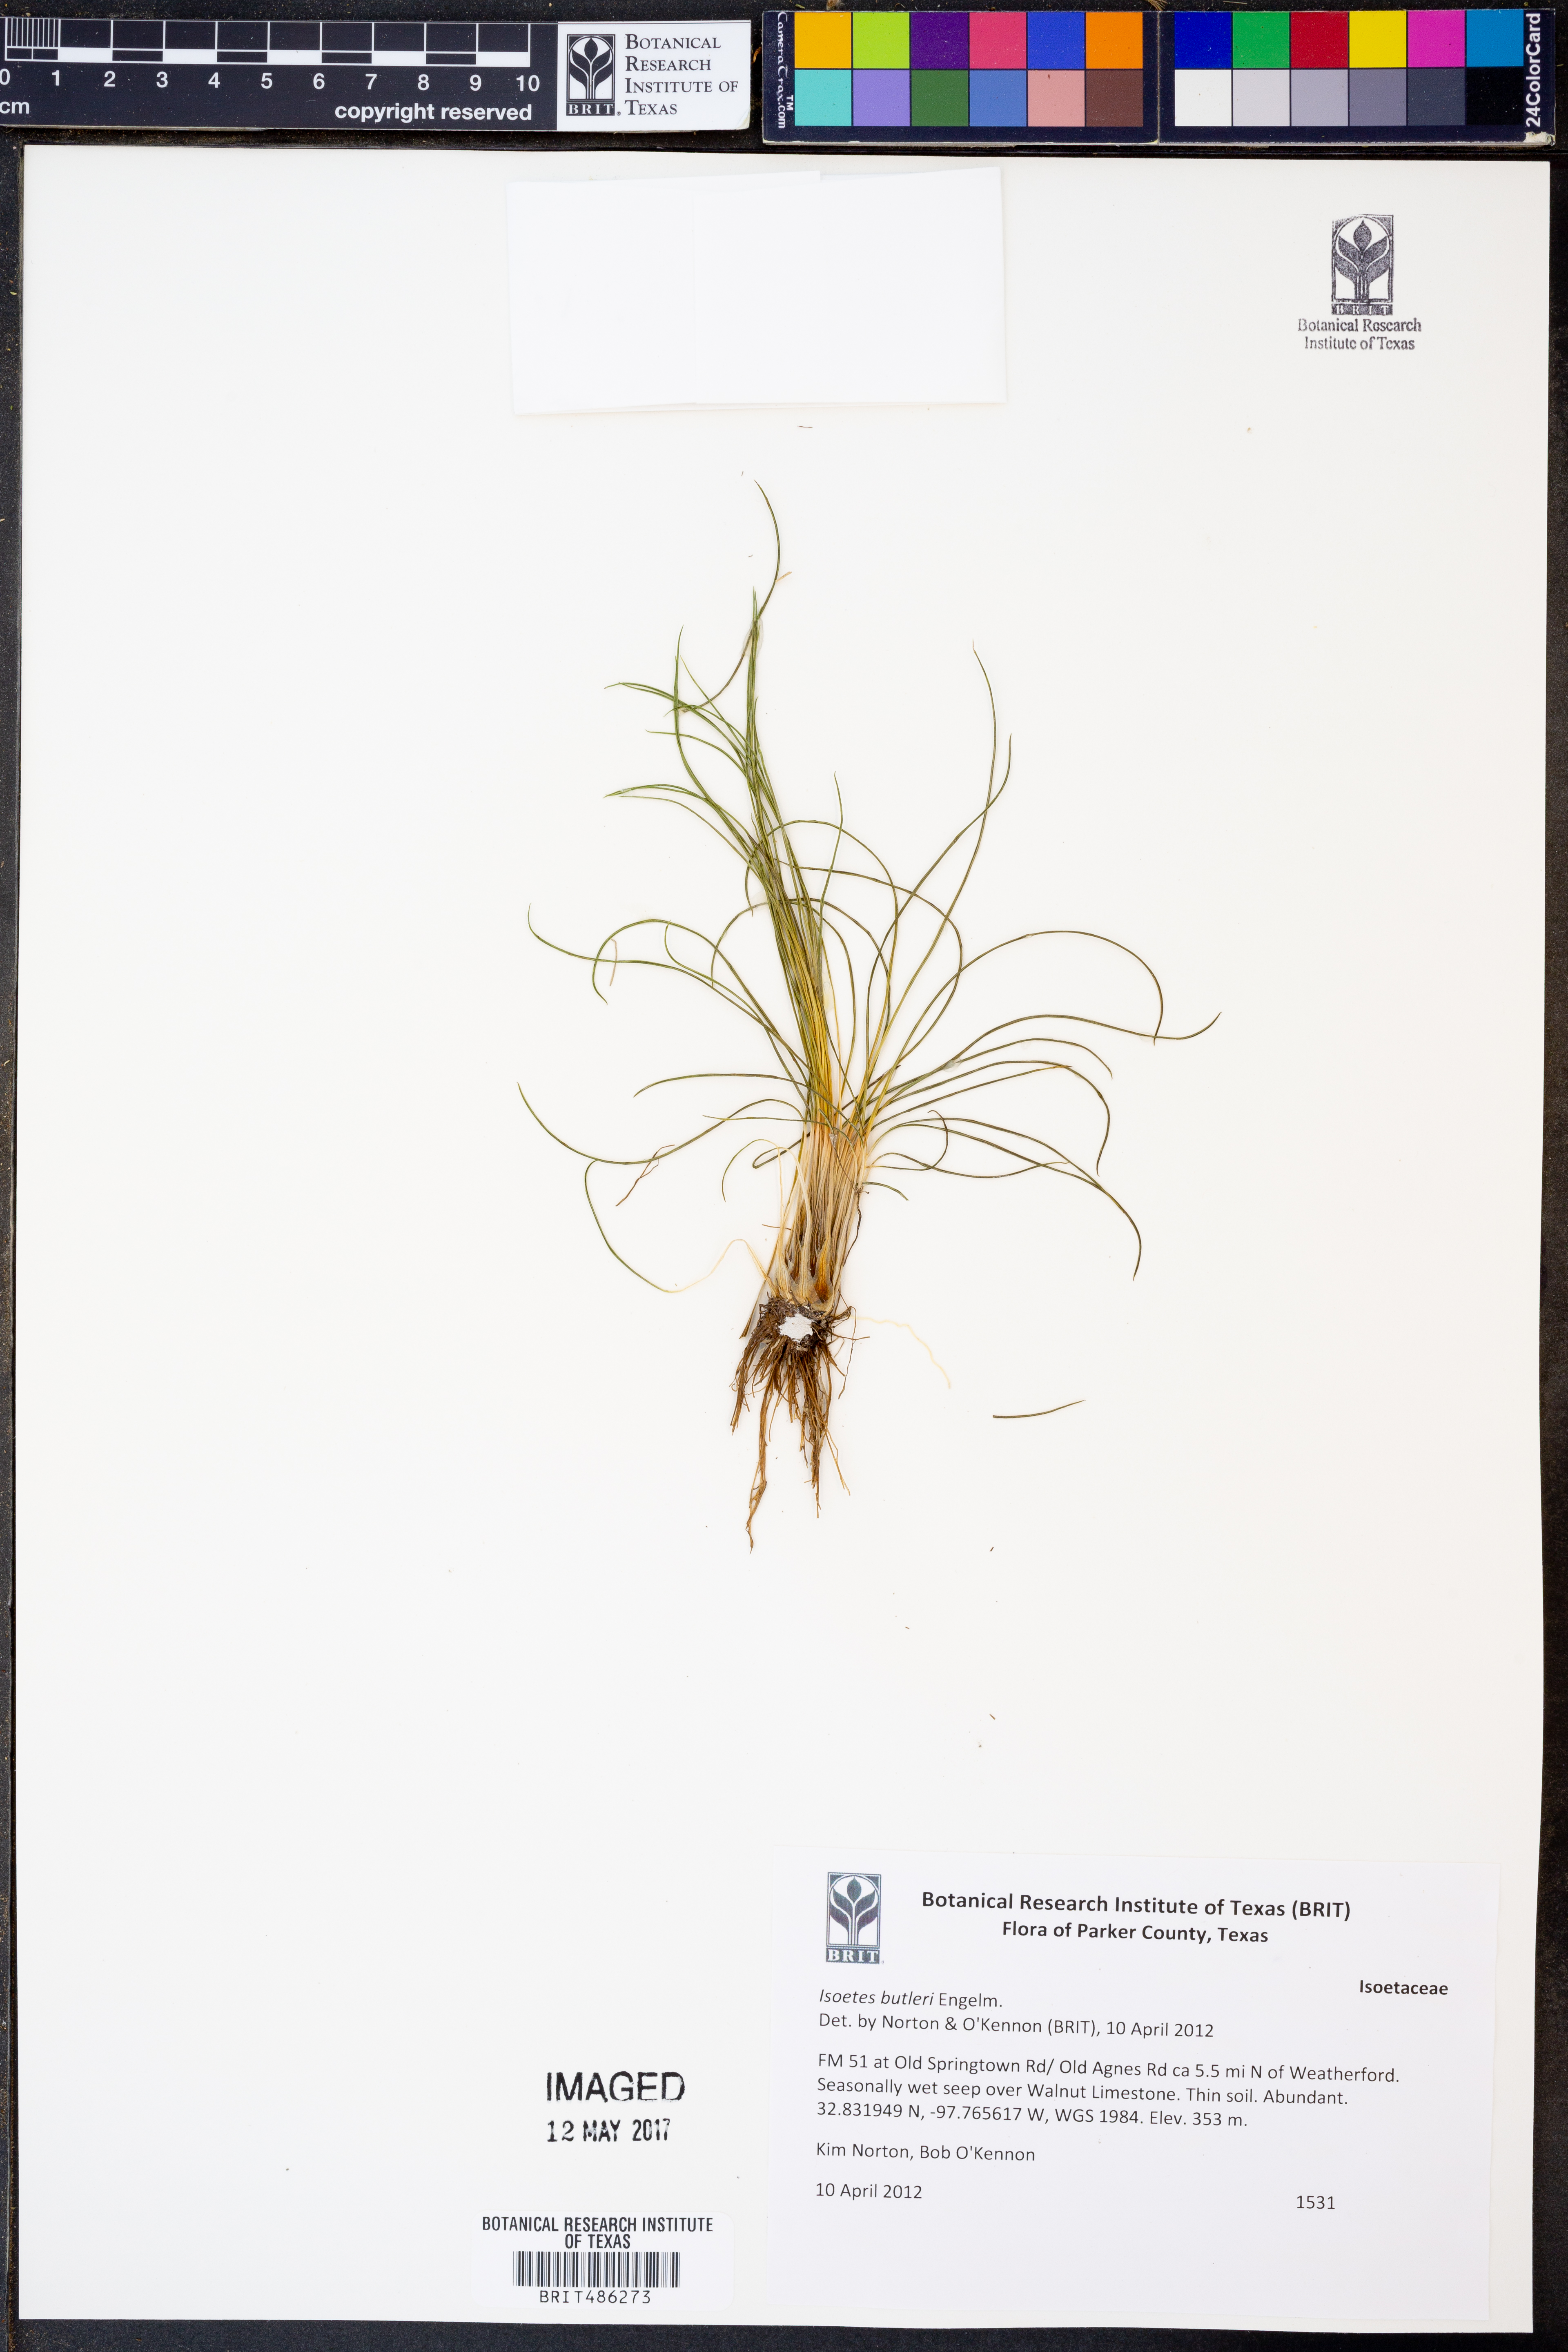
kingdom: Plantae
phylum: Tracheophyta
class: Lycopodiopsida
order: Isoetales
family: Isoetaceae
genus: Isoetes
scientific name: Isoetes butleri
